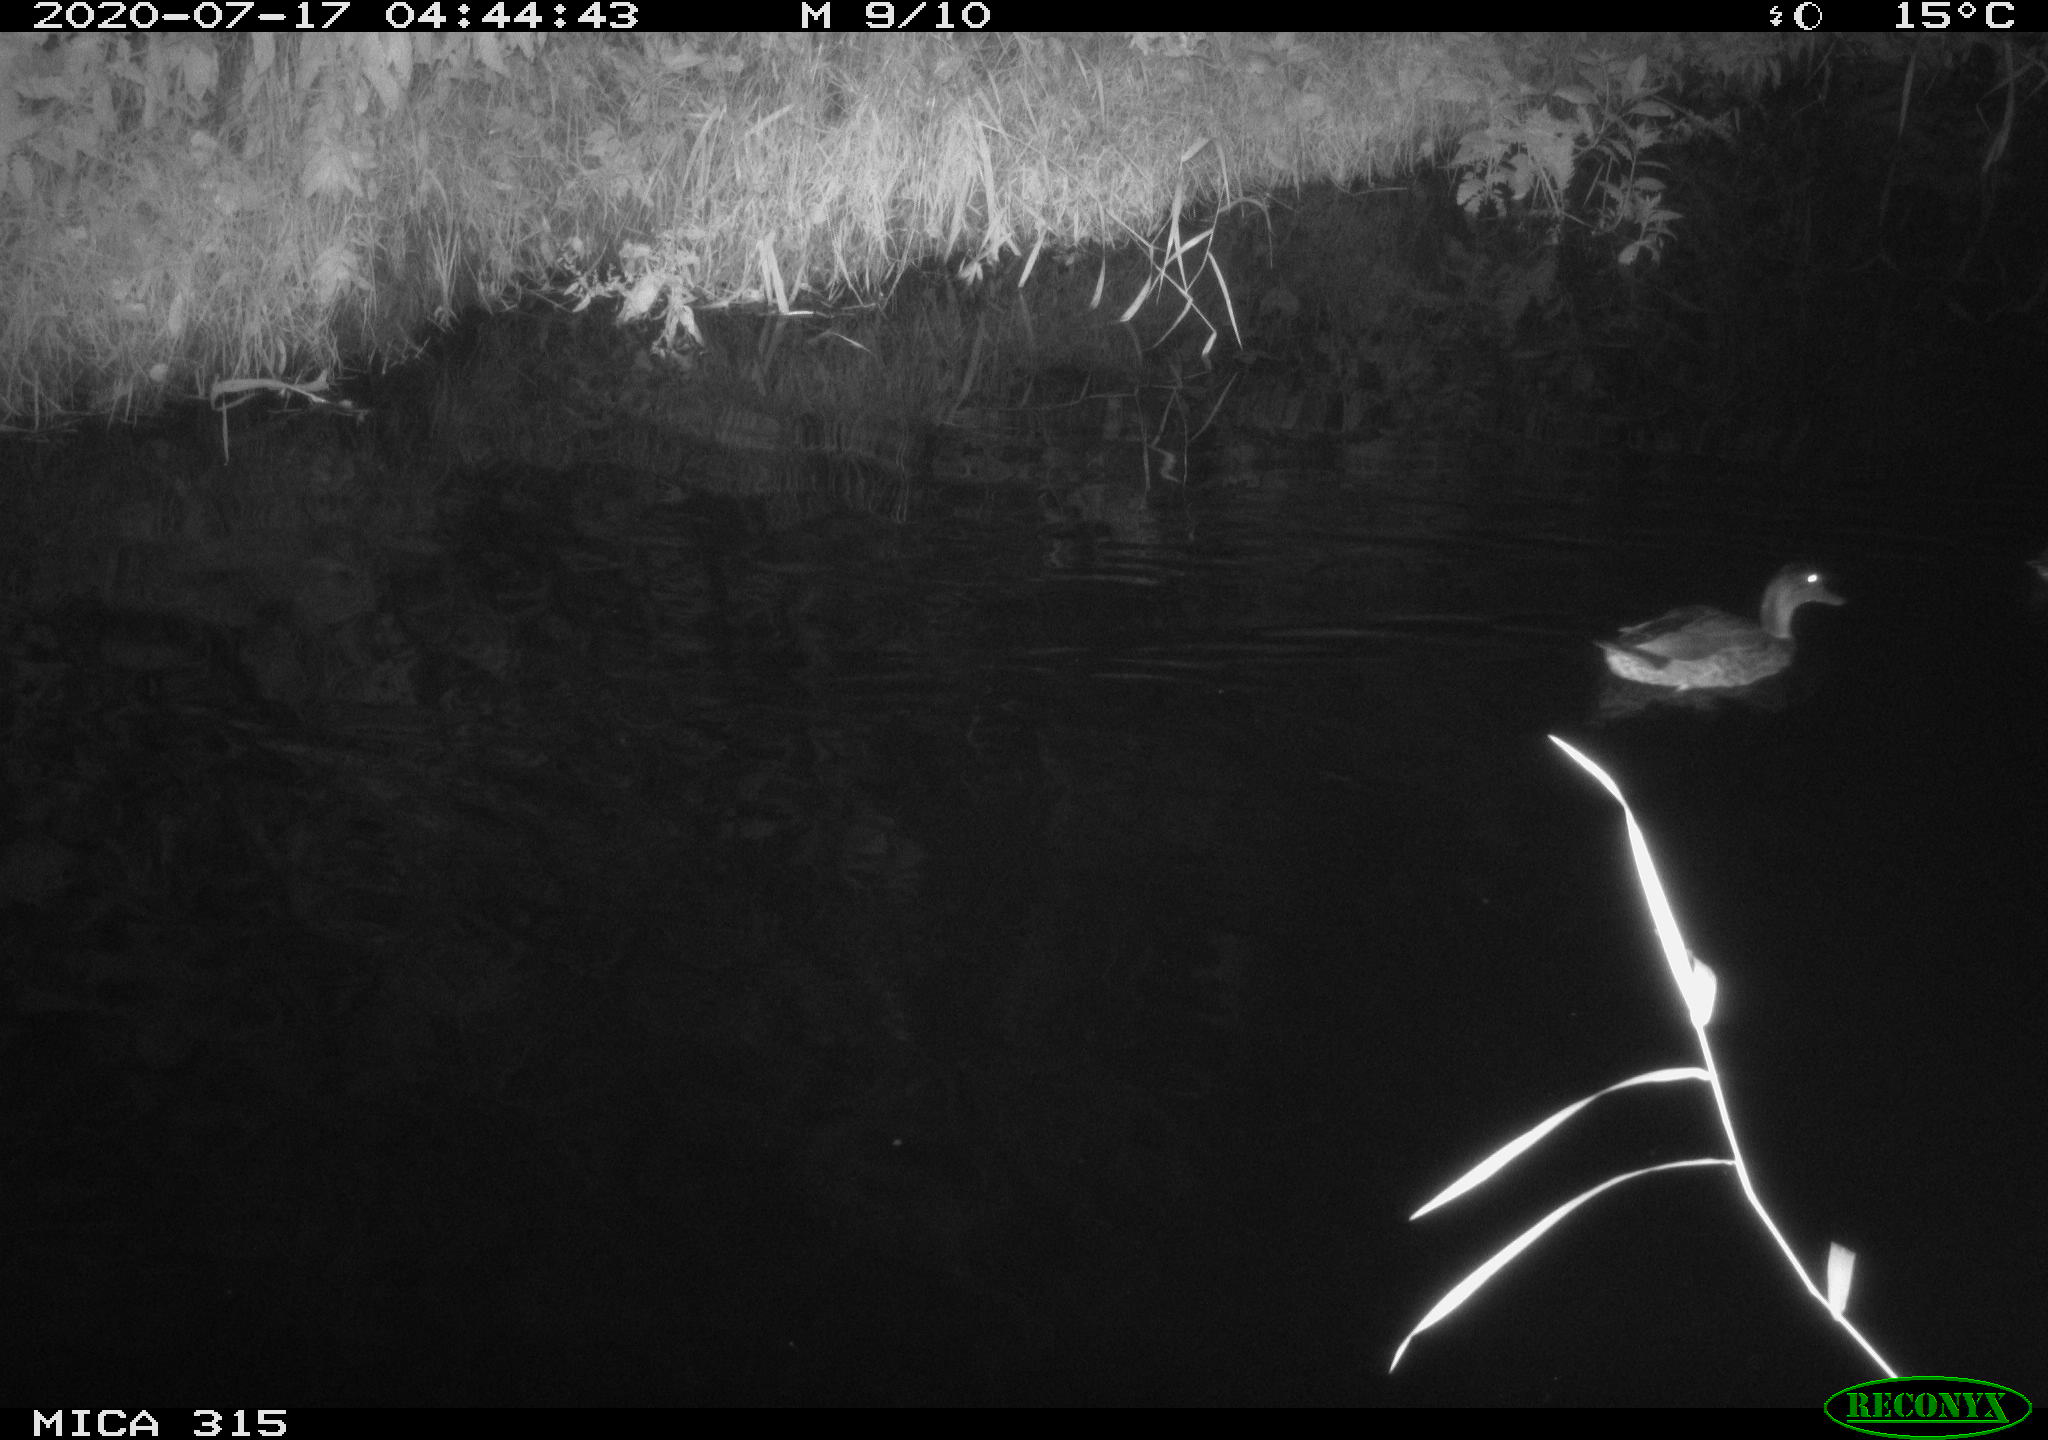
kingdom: Animalia
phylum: Chordata
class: Aves
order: Anseriformes
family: Anatidae
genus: Anas
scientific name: Anas platyrhynchos
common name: Mallard
